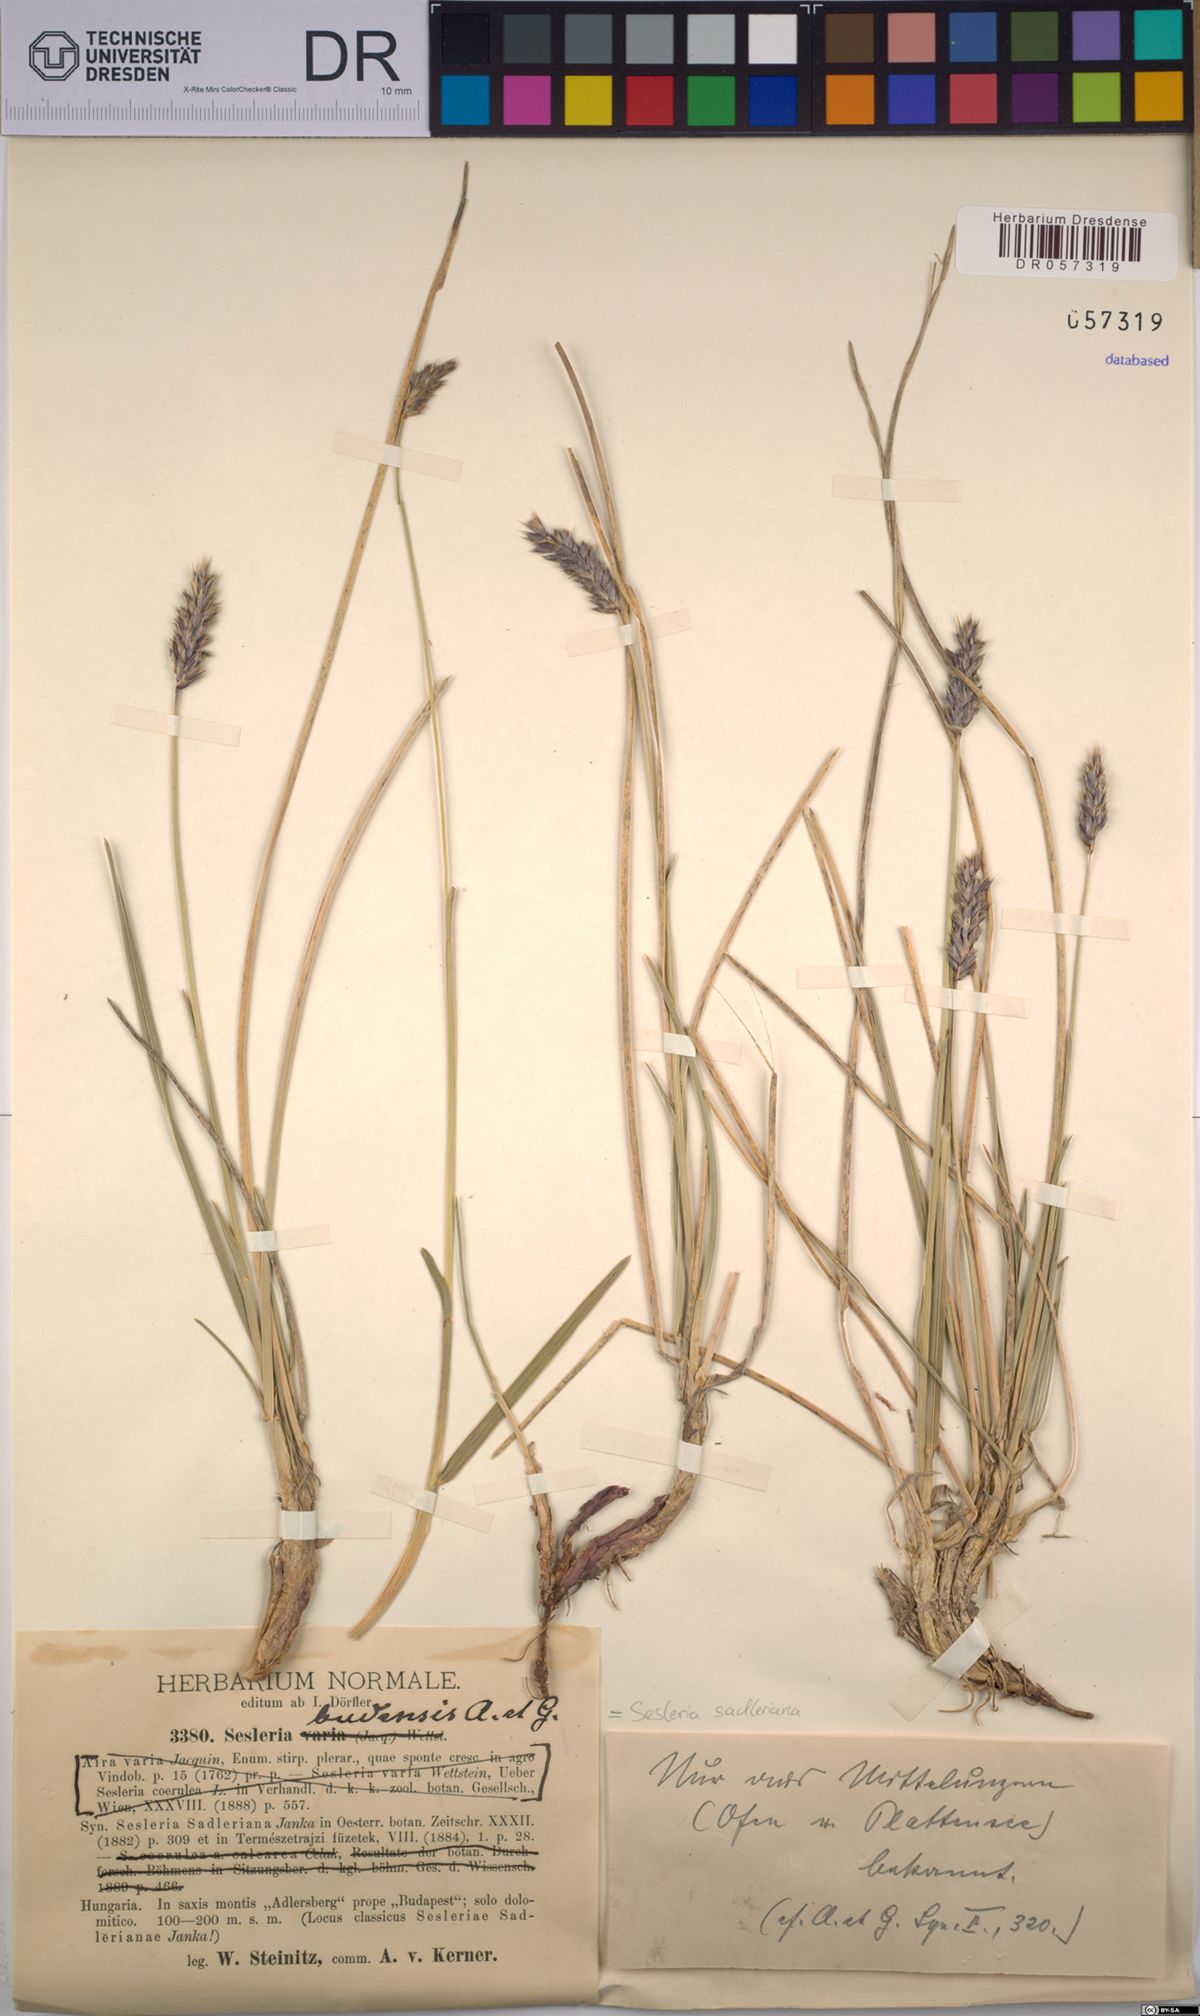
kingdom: Plantae
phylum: Tracheophyta
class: Liliopsida
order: Poales
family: Poaceae
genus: Sesleria
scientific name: Sesleria sadleriana
